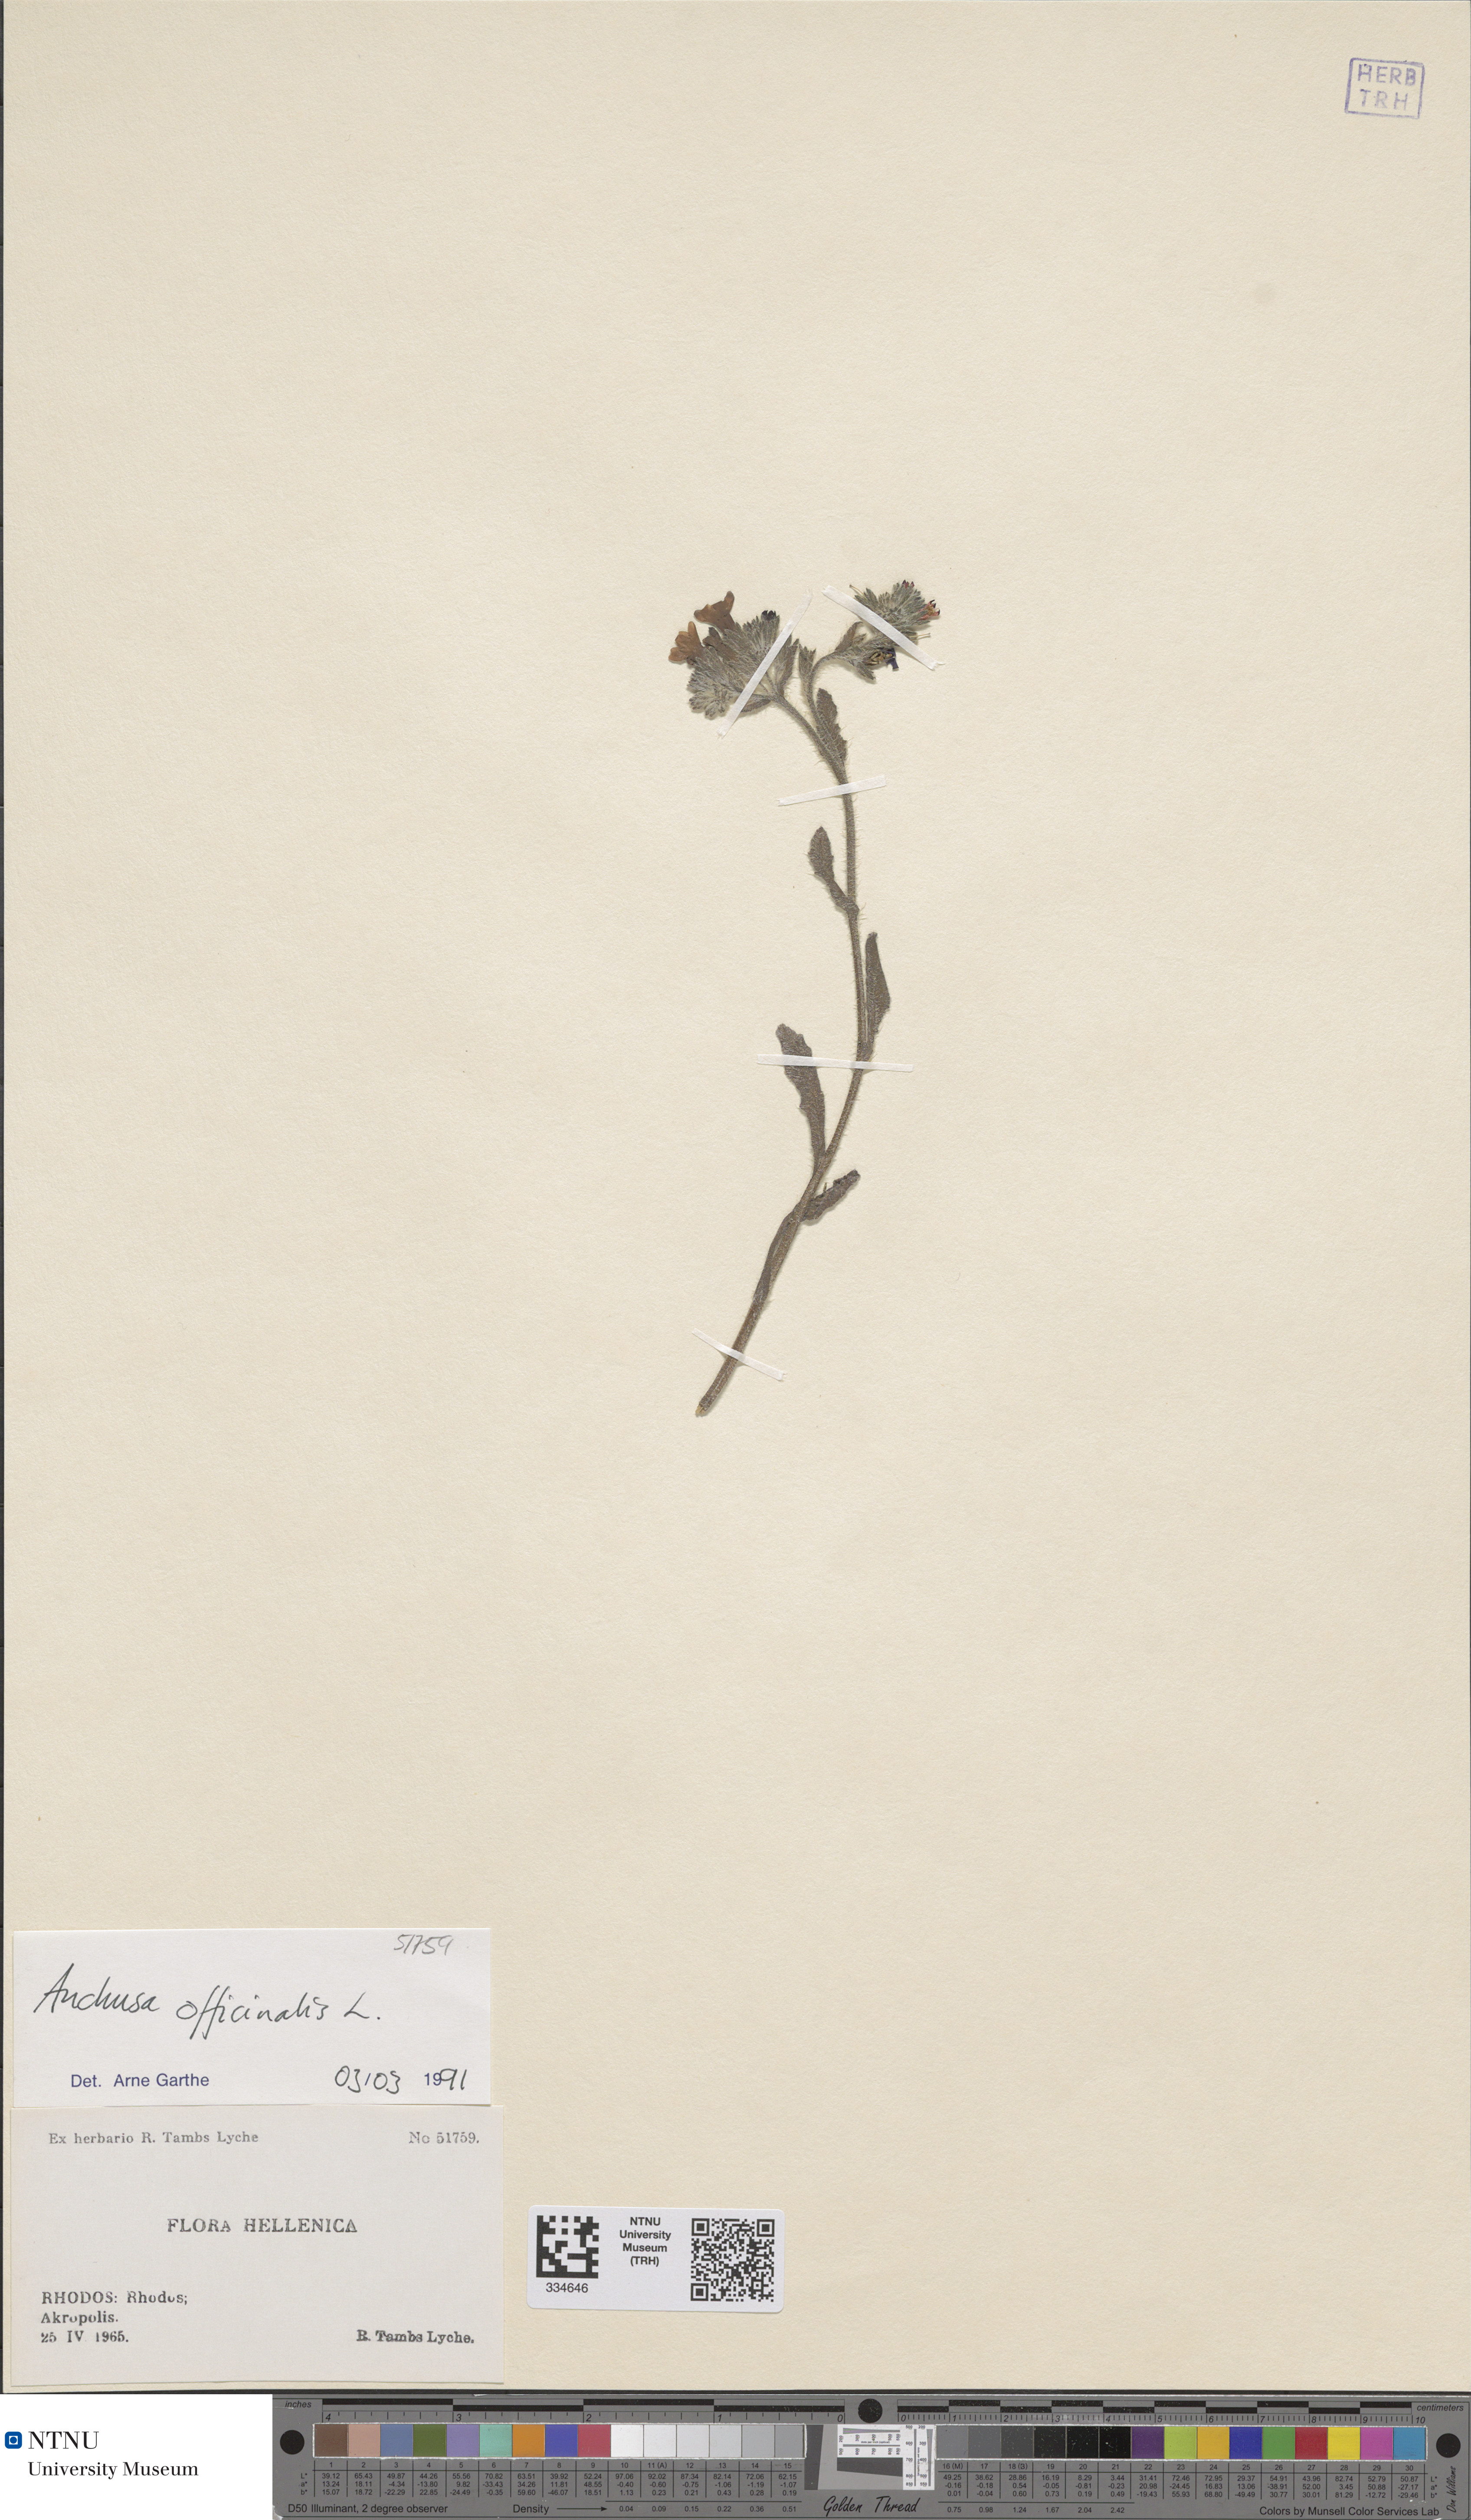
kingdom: Plantae
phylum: Tracheophyta
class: Magnoliopsida
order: Boraginales
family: Boraginaceae
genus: Anchusa
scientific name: Anchusa officinalis
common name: Alkanet
